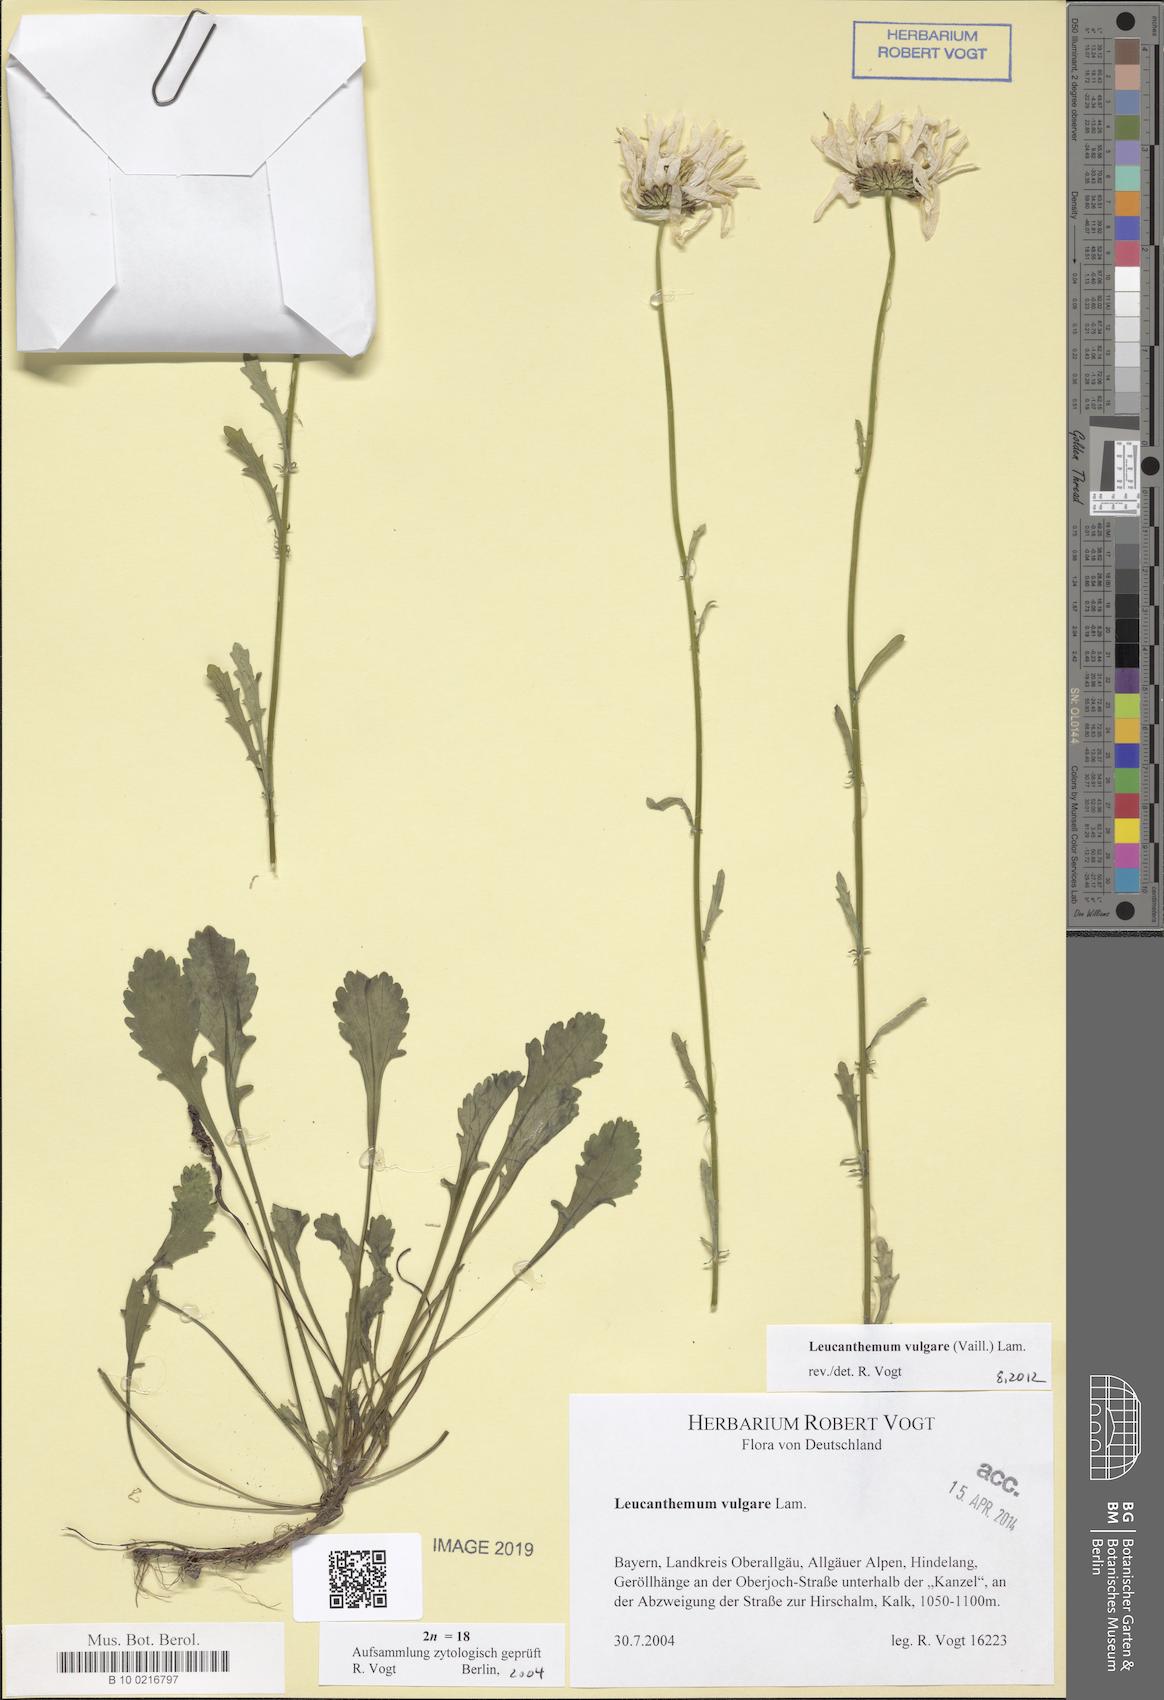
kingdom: Plantae
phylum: Tracheophyta
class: Magnoliopsida
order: Asterales
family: Asteraceae
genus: Leucanthemum
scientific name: Leucanthemum vulgare
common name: Oxeye daisy
